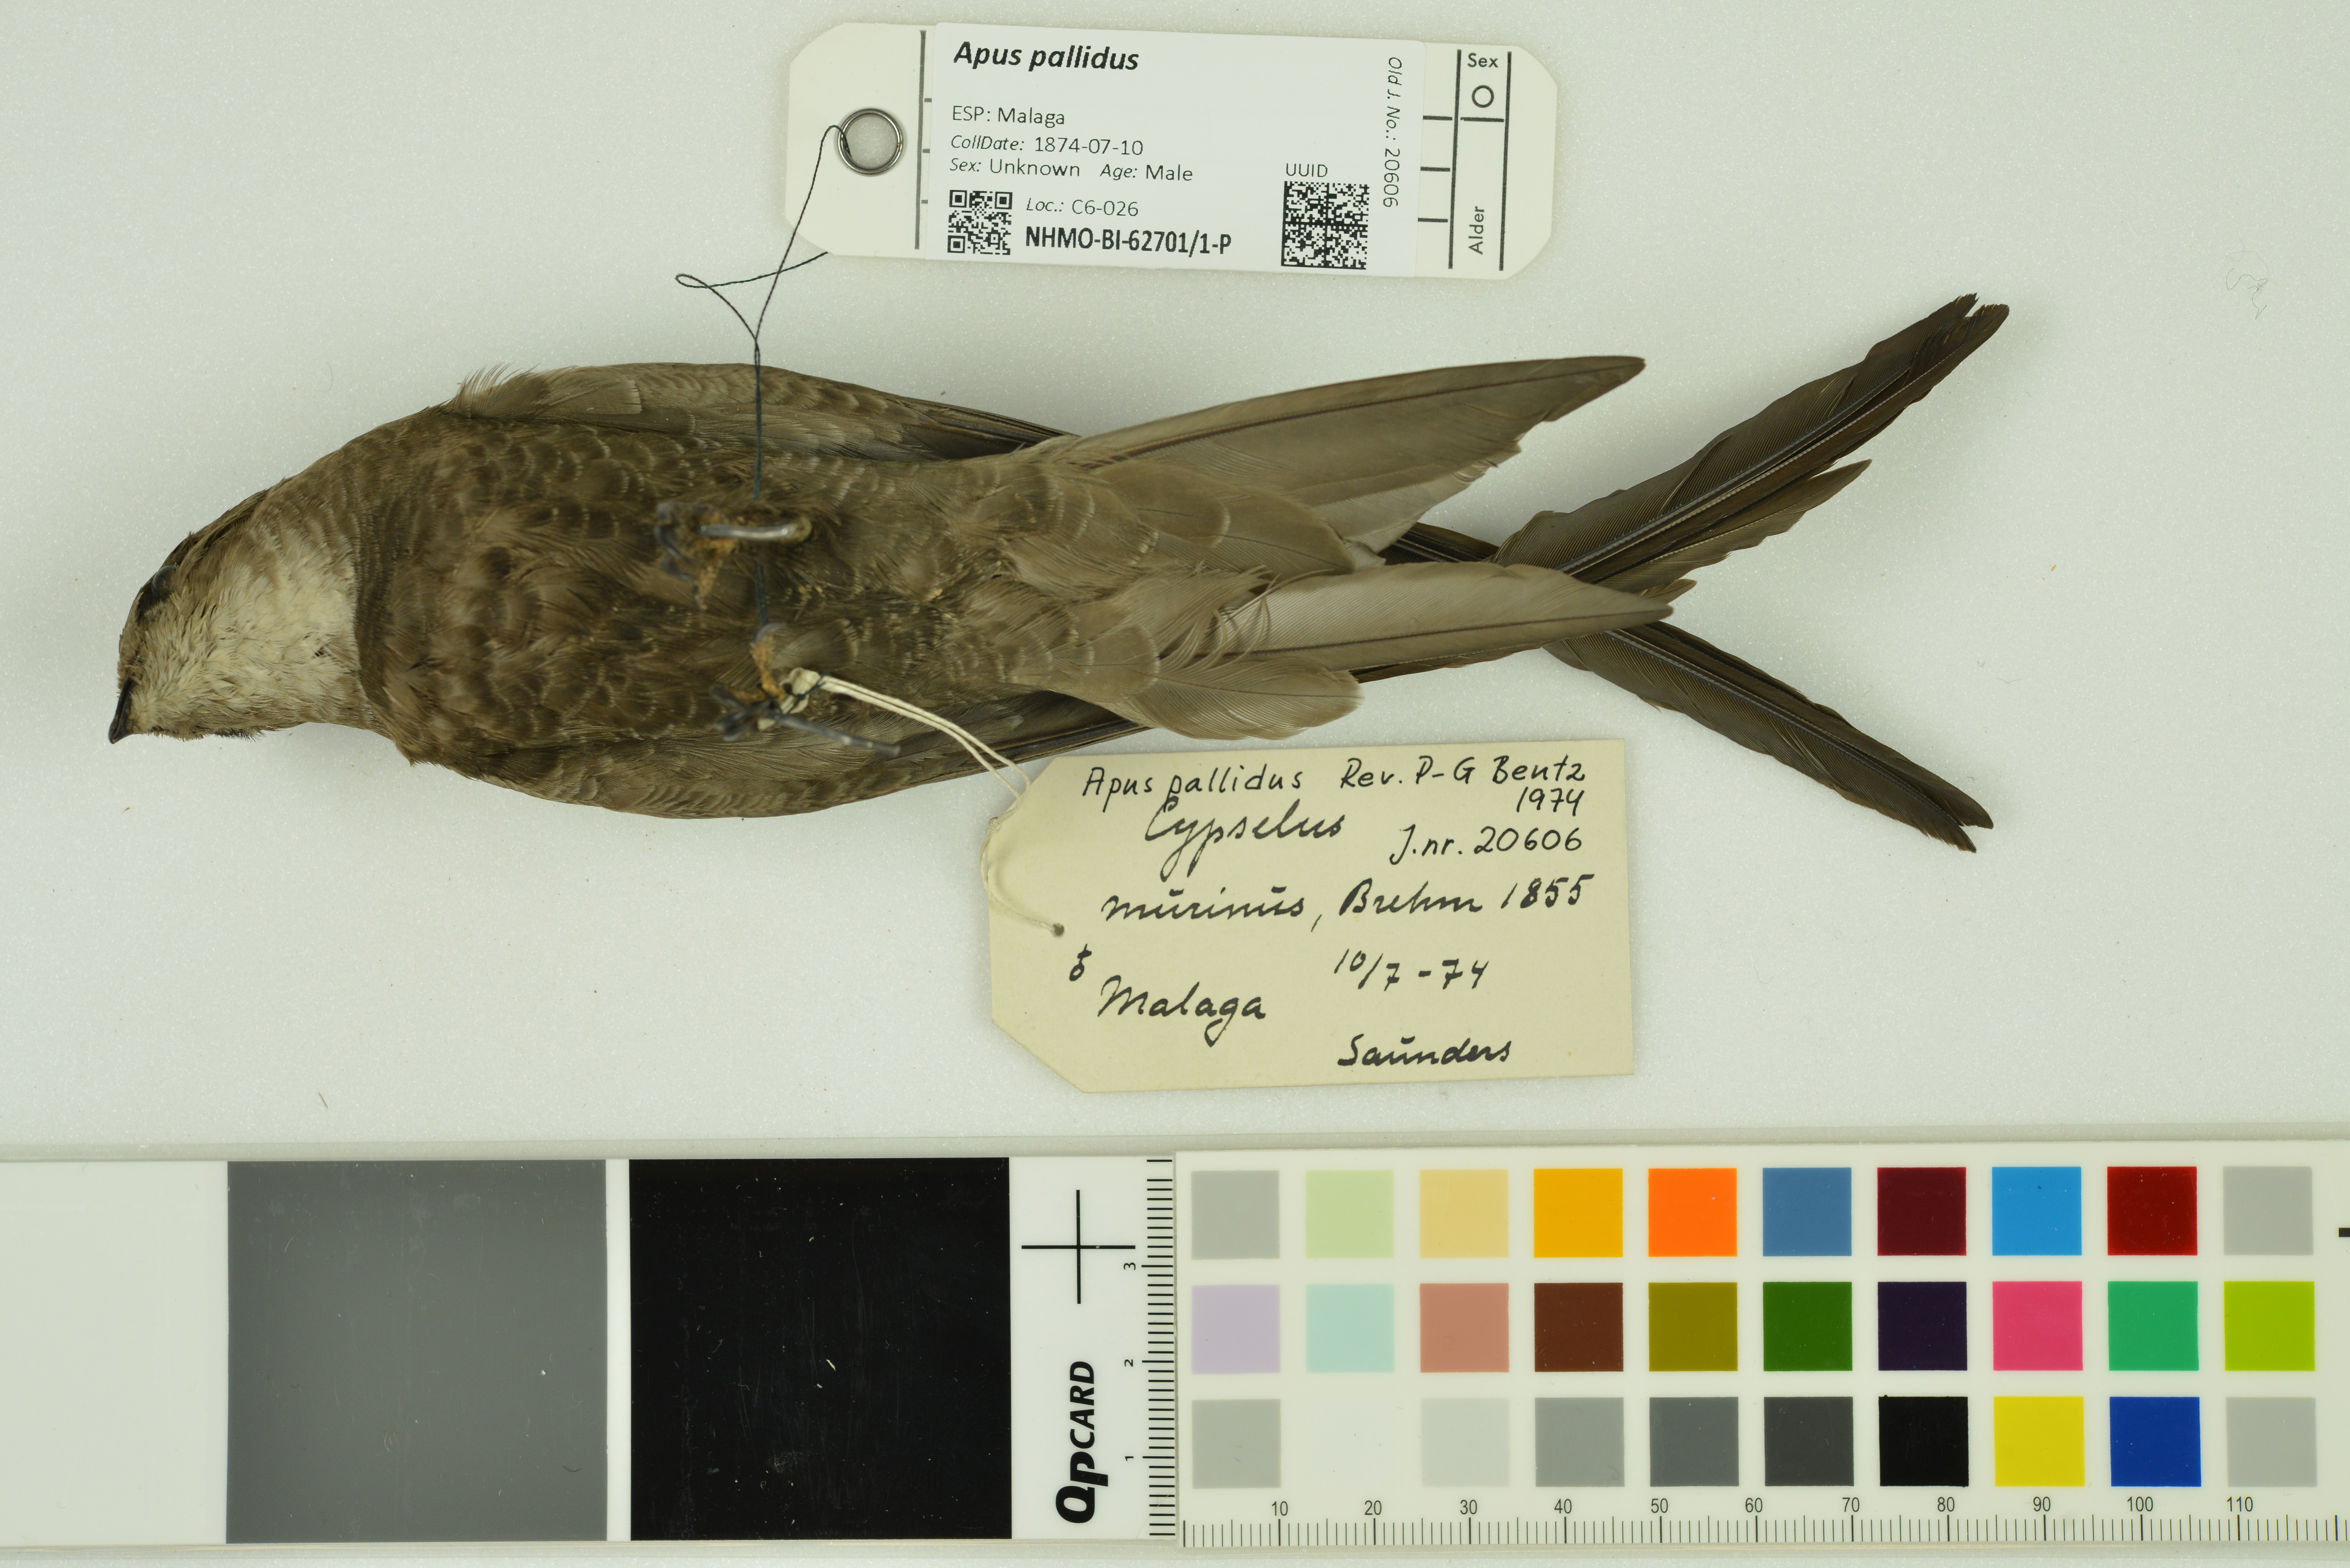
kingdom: Animalia
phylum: Chordata
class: Aves
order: Apodiformes
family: Apodidae
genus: Apus
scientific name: Apus pallidus
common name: Pallid swift
